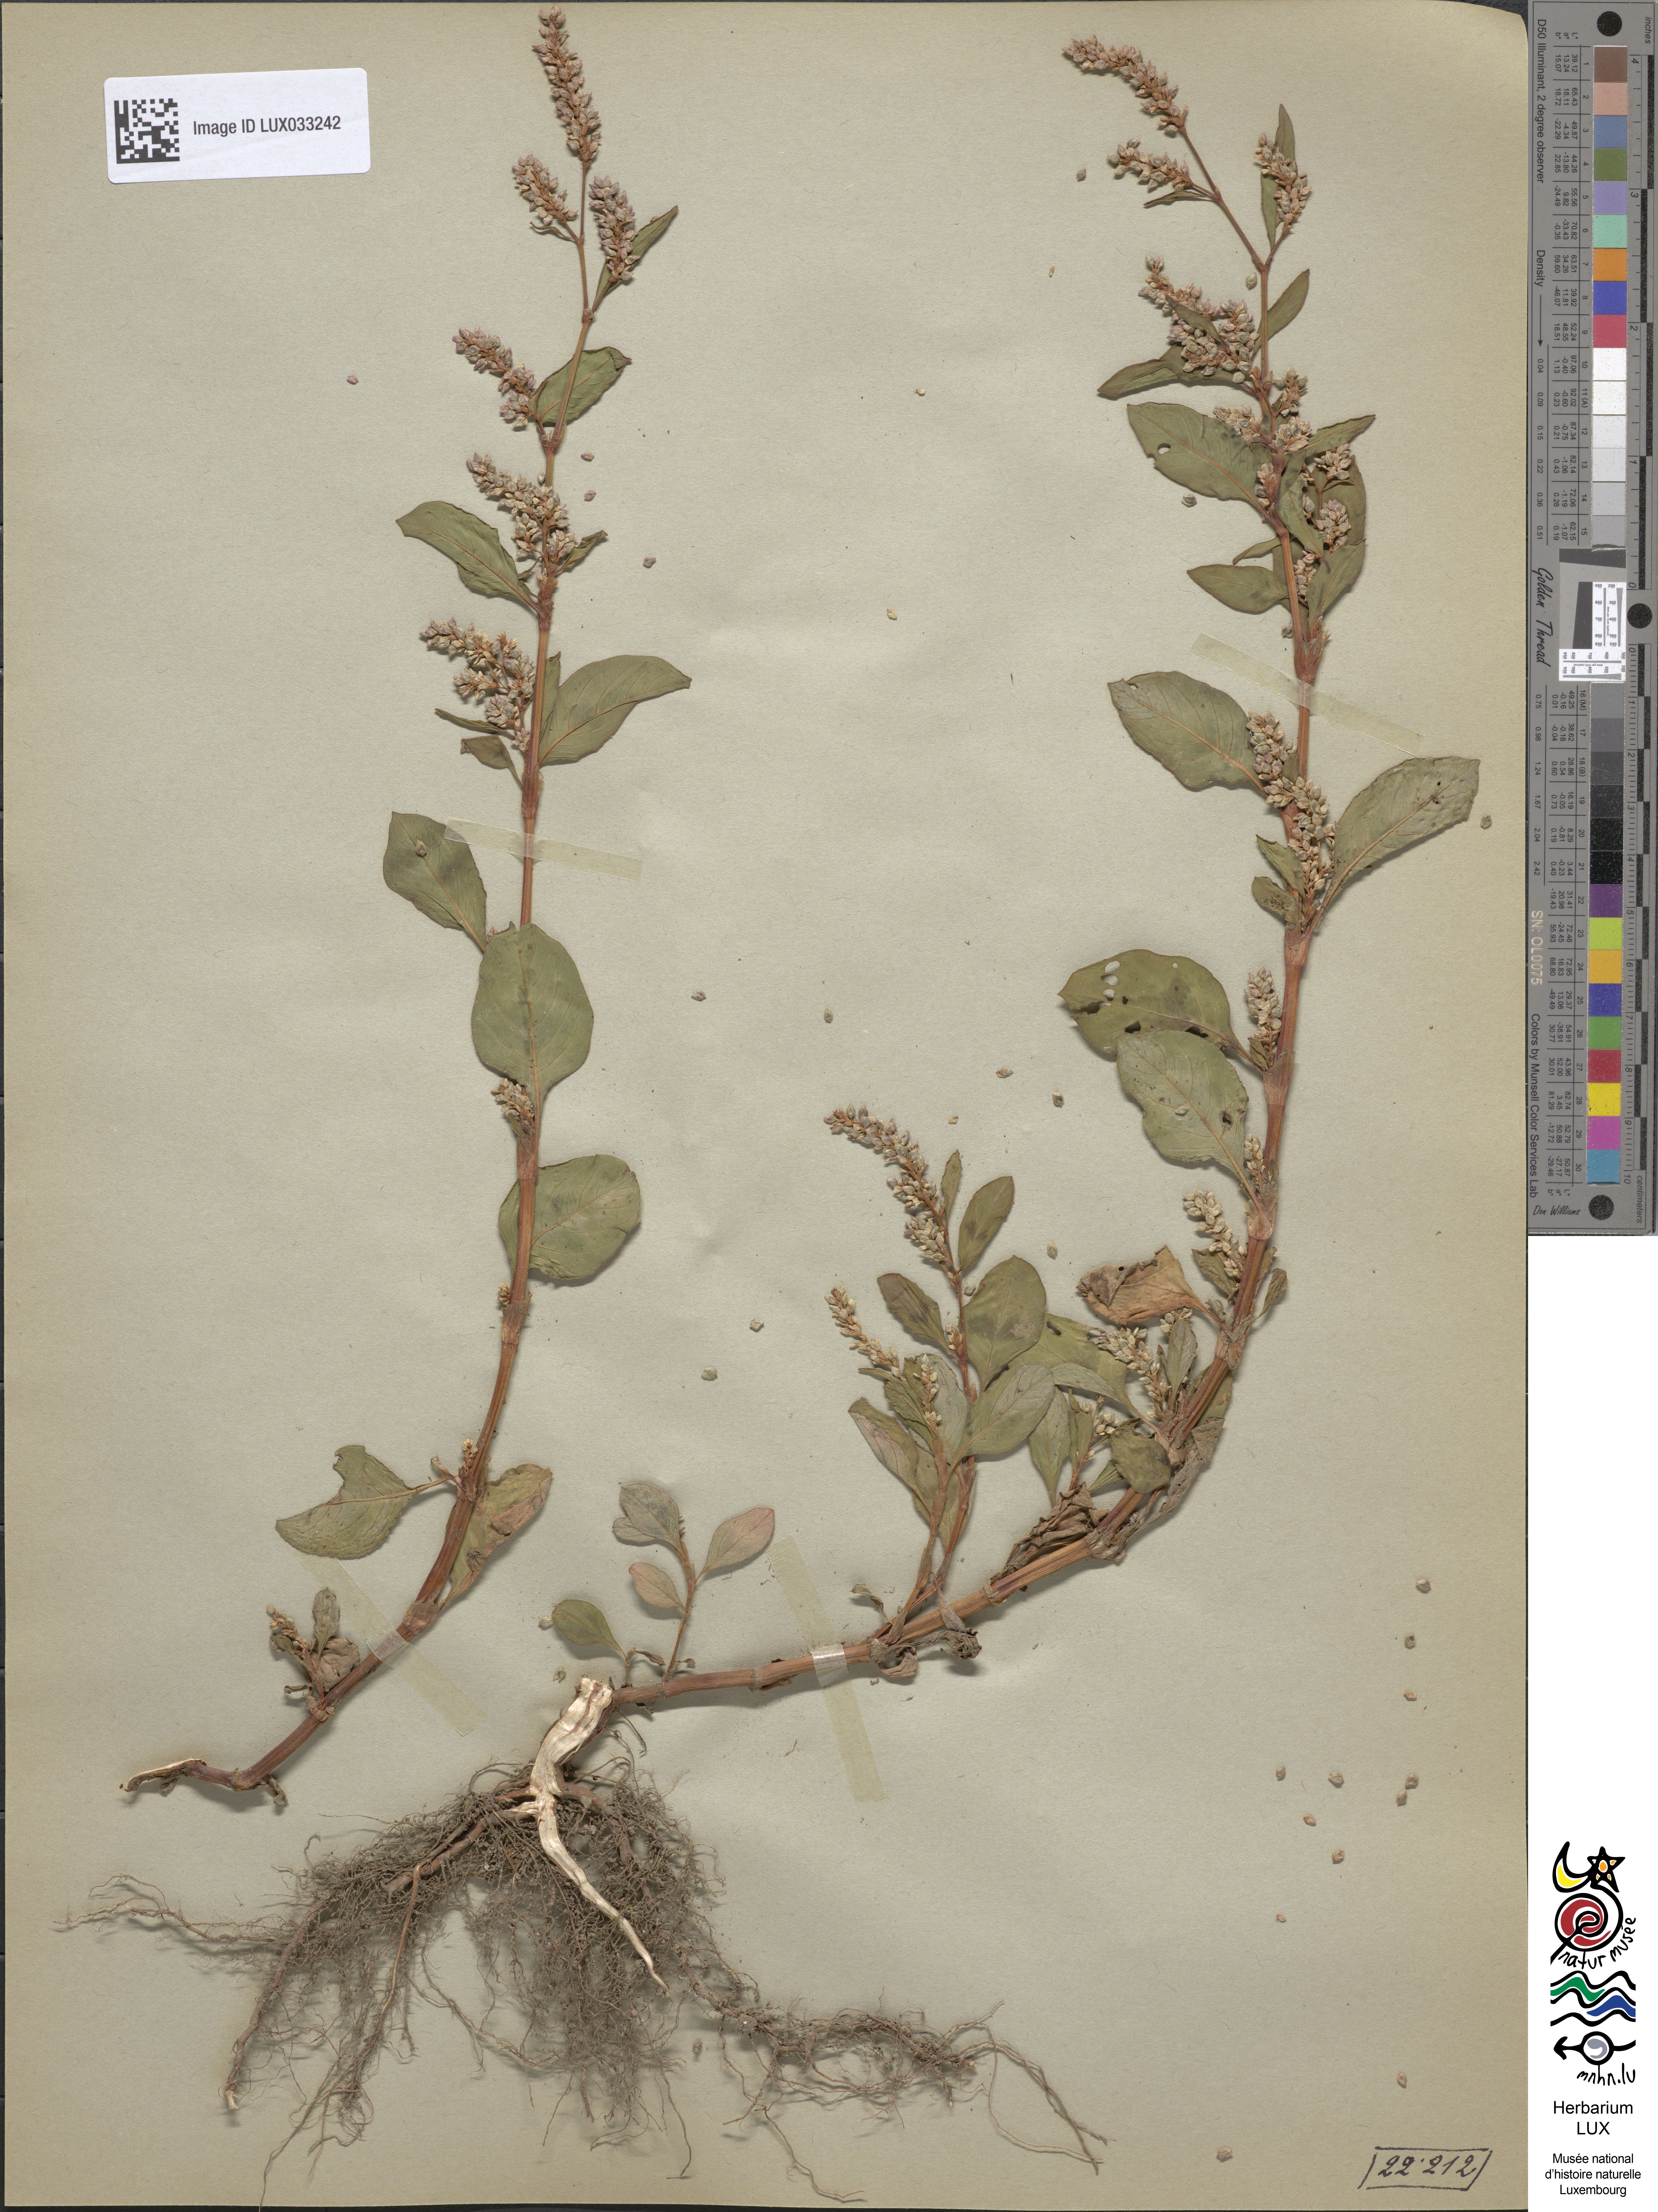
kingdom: Plantae
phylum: Tracheophyta
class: Magnoliopsida
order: Caryophyllales
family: Polygonaceae
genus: Persicaria
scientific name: Persicaria lapathifolia
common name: Curlytop knotweed
